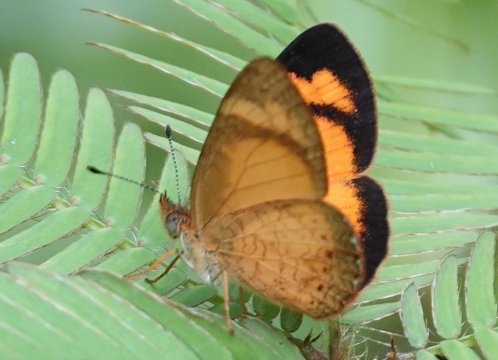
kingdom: Animalia
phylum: Arthropoda
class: Insecta
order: Lepidoptera
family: Nymphalidae
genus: Tegosa
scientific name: Tegosa anieta
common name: Black-bordered Crescent
